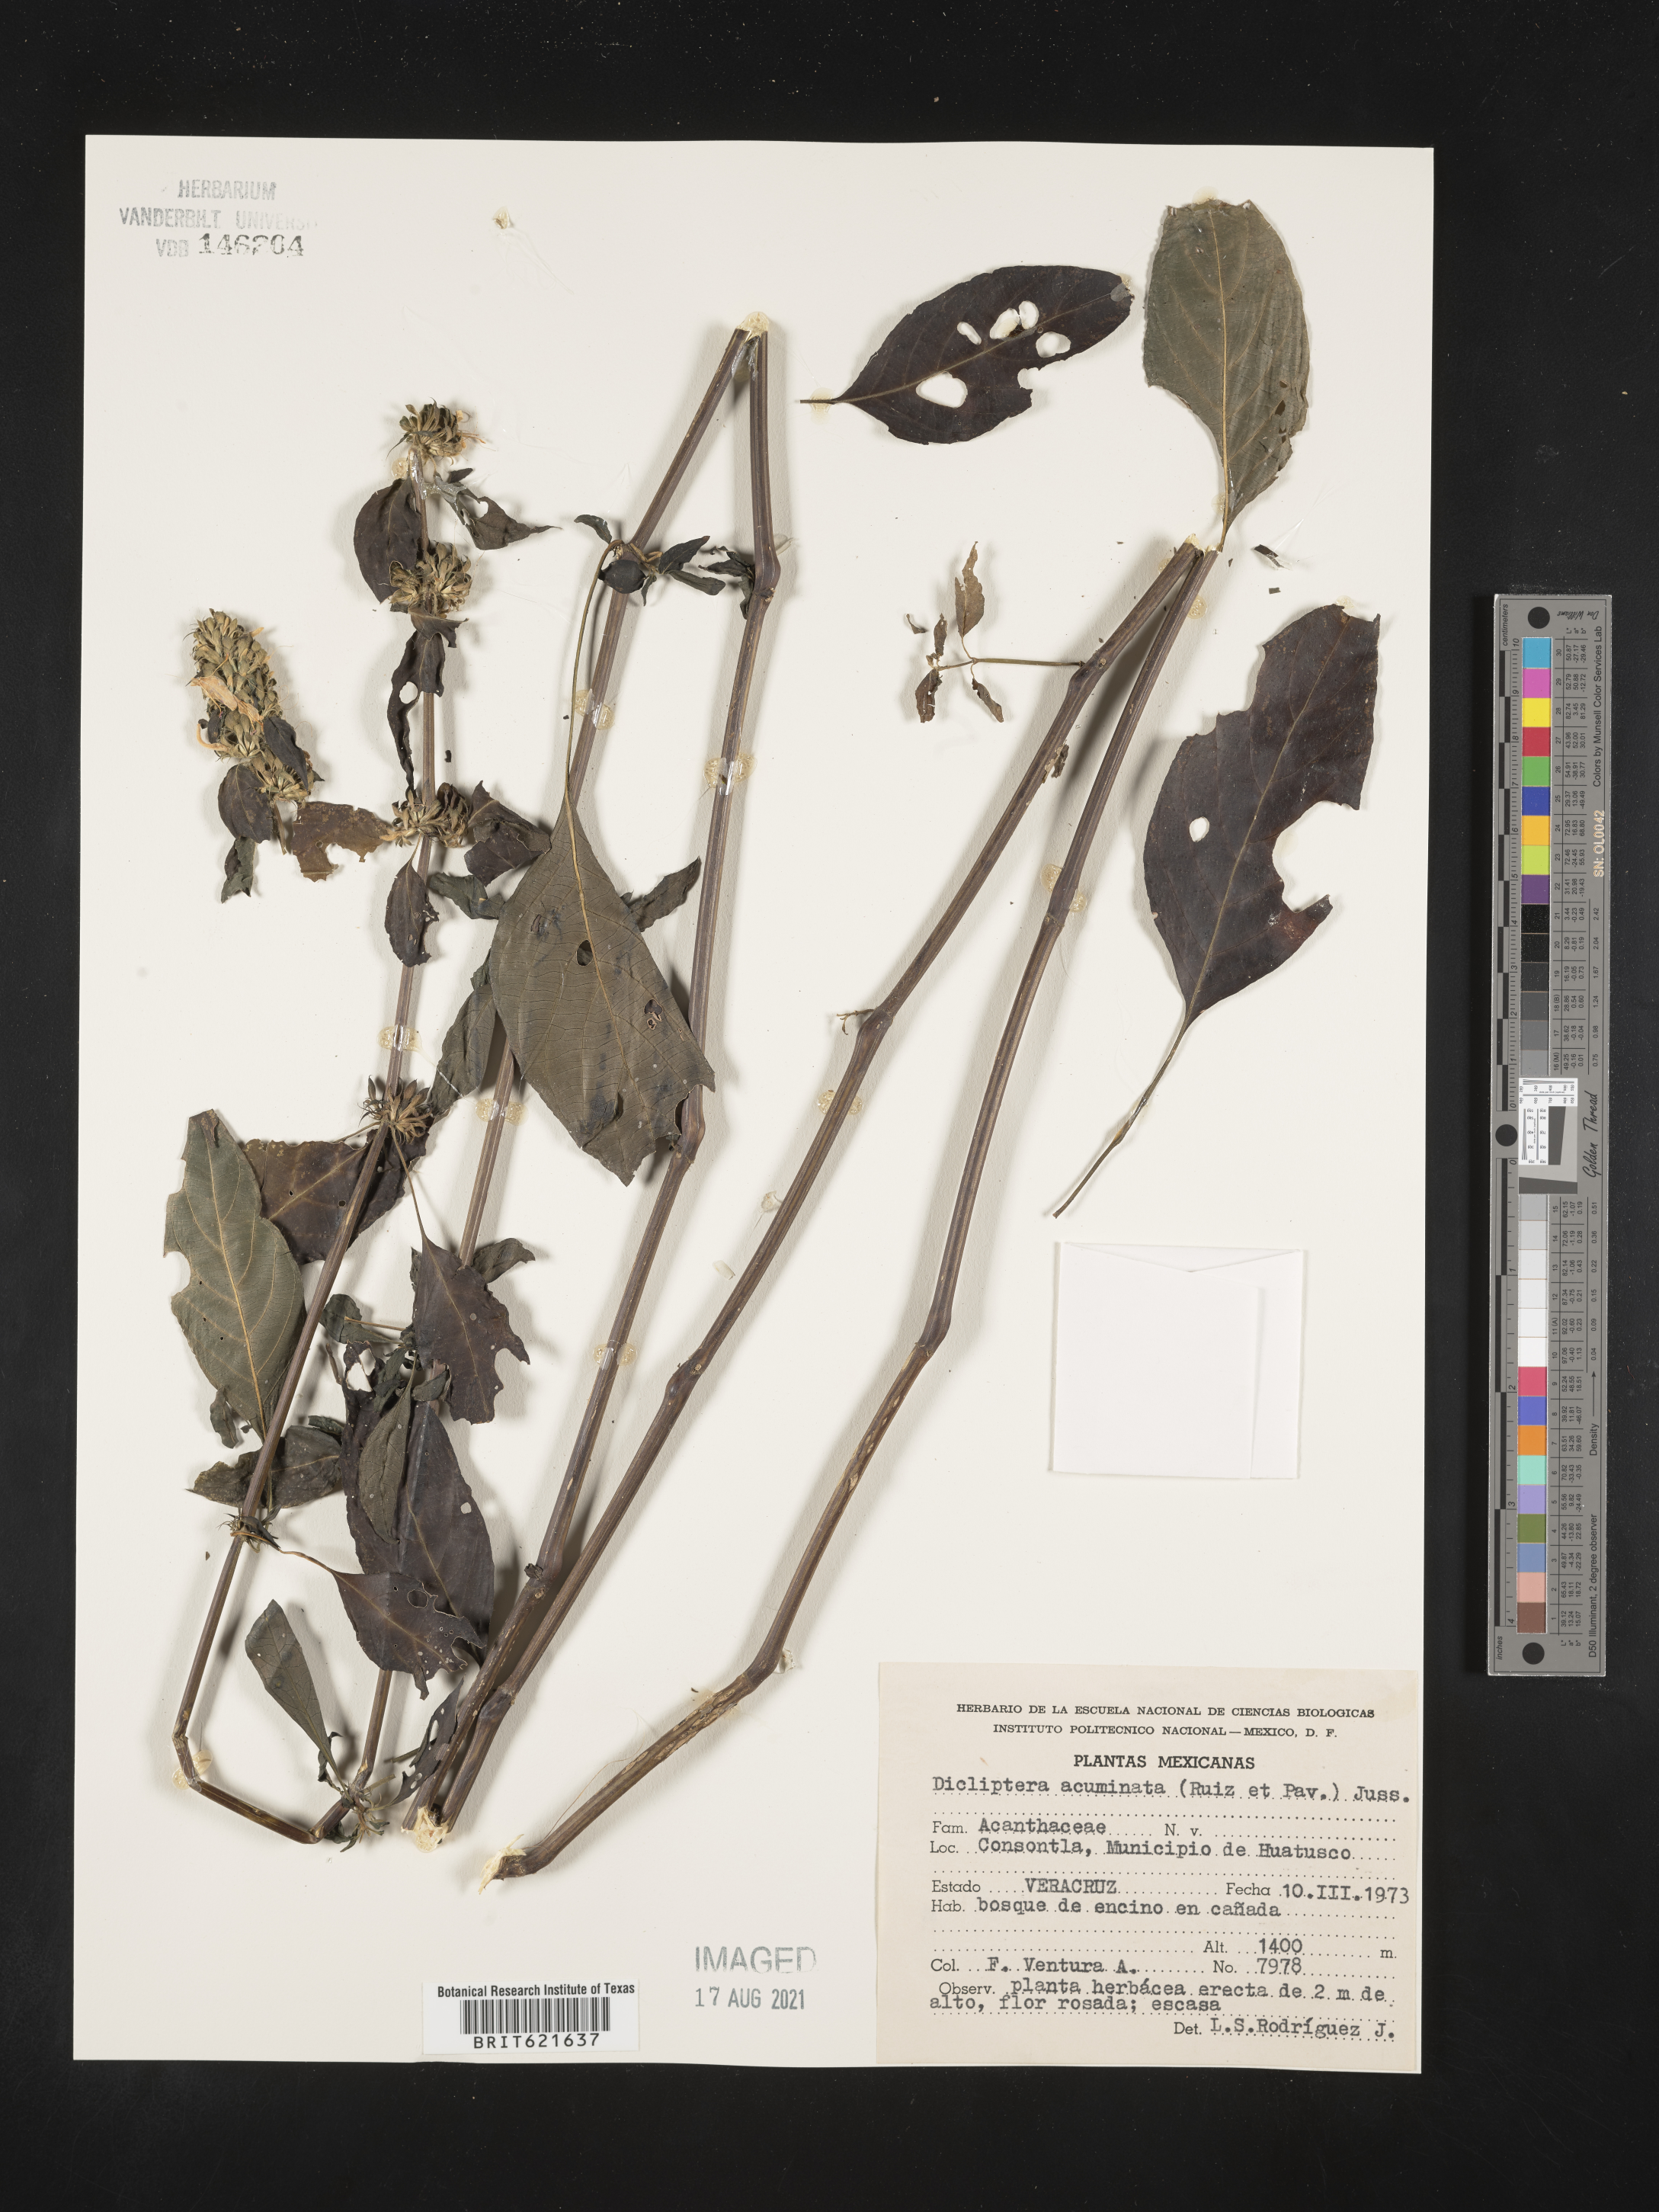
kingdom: Plantae
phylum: Tracheophyta
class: Magnoliopsida
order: Lamiales
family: Acanthaceae
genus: Dicliptera
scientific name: Dicliptera
